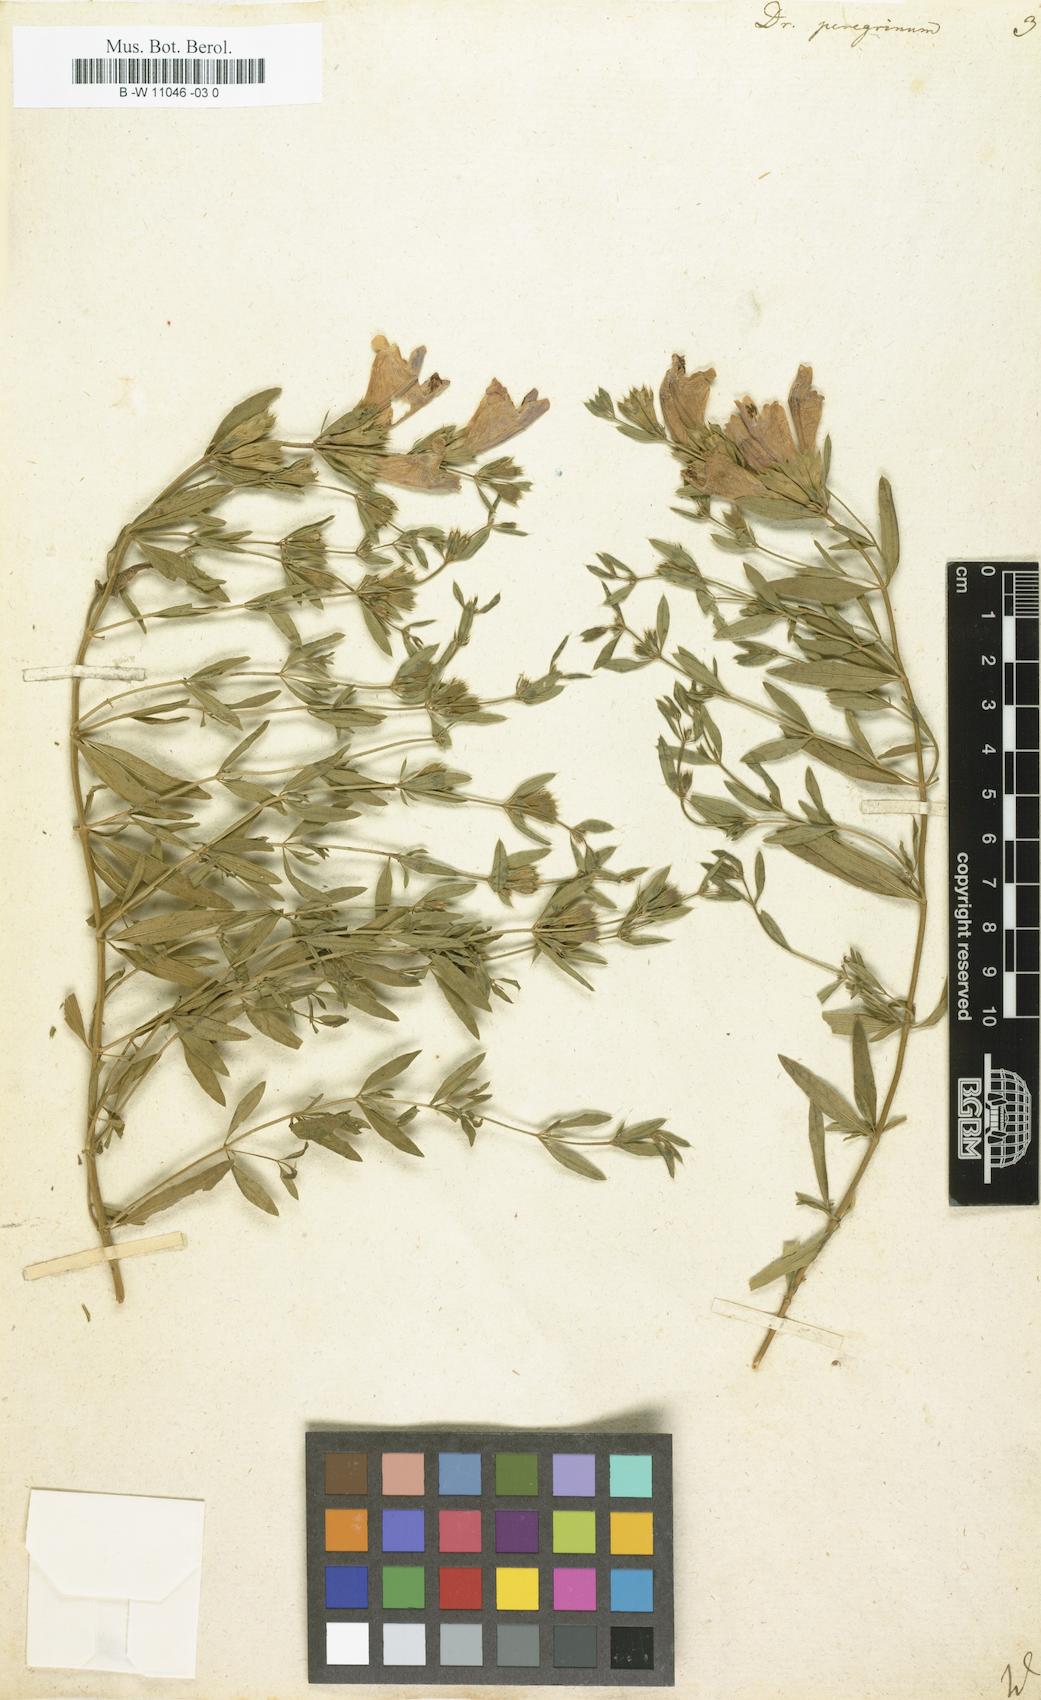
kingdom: Plantae
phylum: Tracheophyta
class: Magnoliopsida
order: Lamiales
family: Lamiaceae
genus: Dracocephalum
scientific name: Dracocephalum peregrinum
